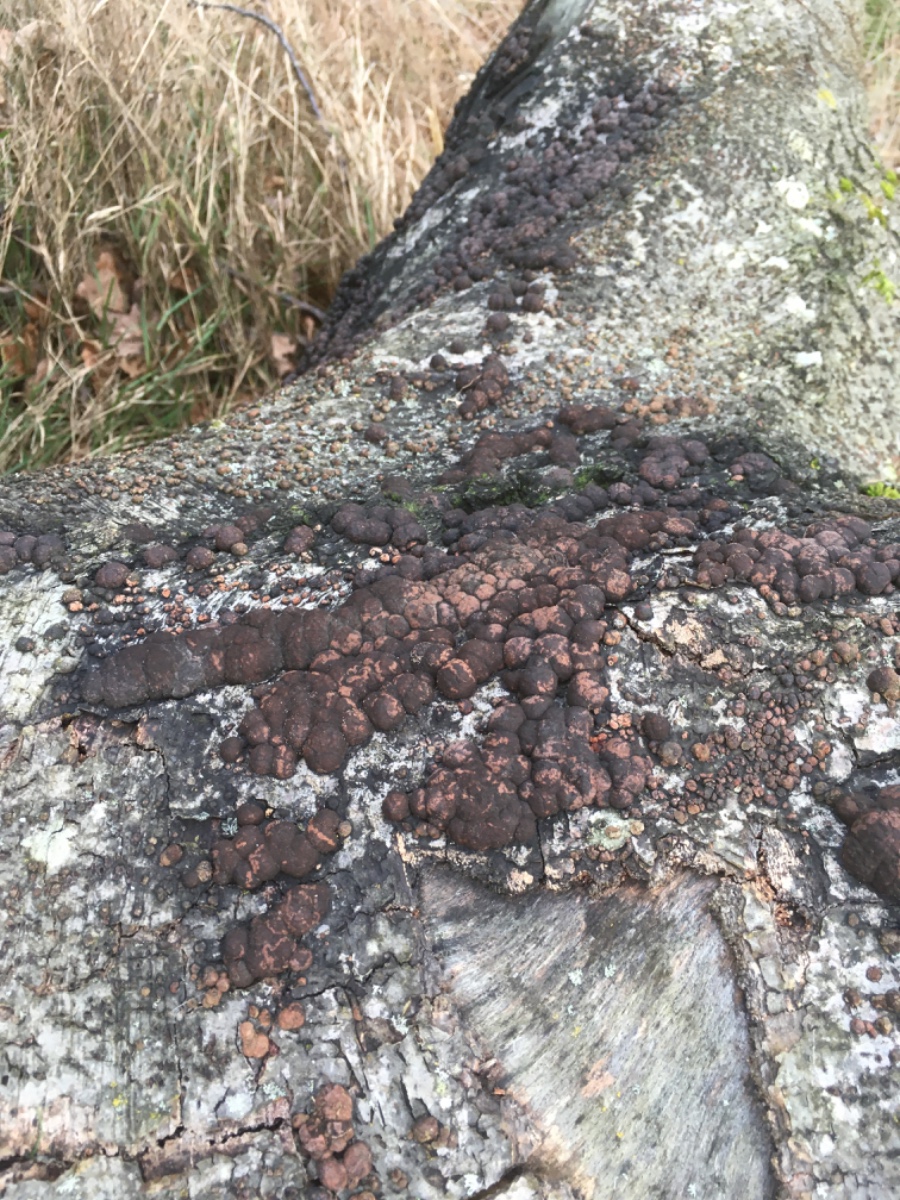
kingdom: Fungi
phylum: Ascomycota
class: Sordariomycetes
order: Xylariales
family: Hypoxylaceae
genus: Hypoxylon
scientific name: Hypoxylon fragiforme
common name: kuljordbær
